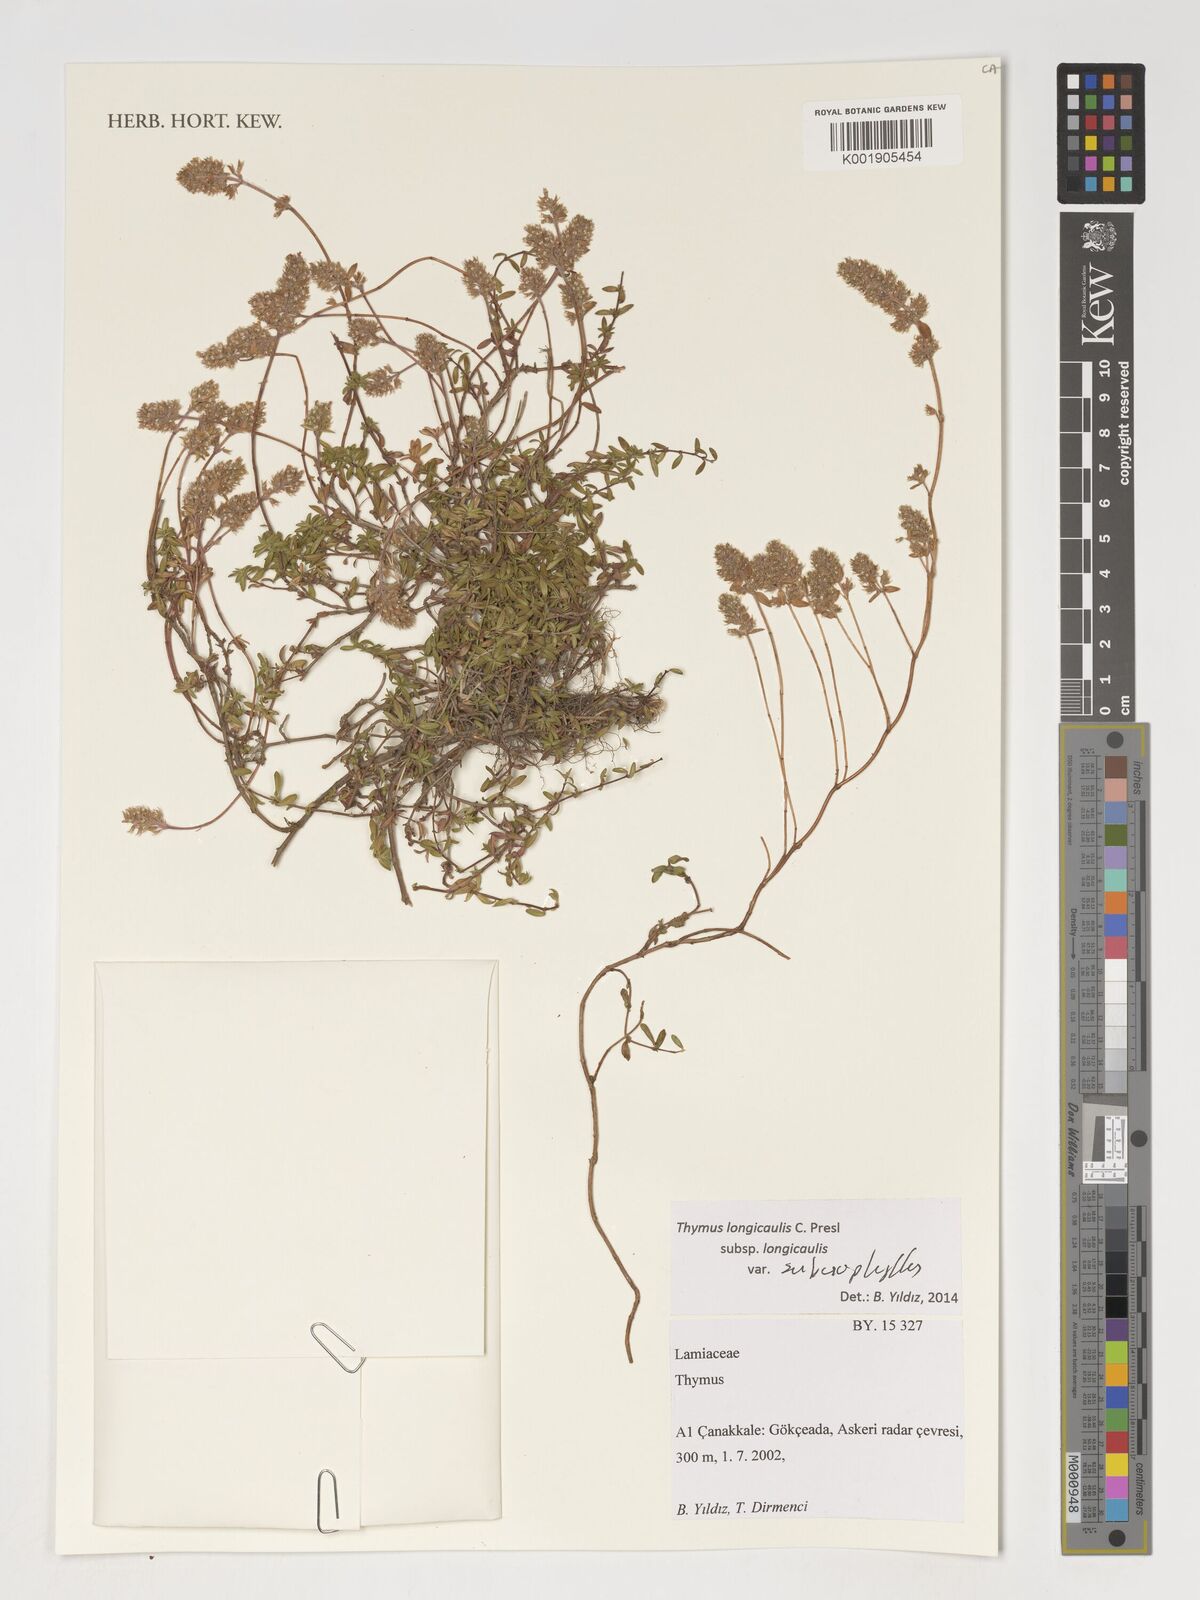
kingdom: Plantae
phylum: Tracheophyta
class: Magnoliopsida
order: Lamiales
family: Lamiaceae
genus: Thymus
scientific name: Thymus longicaulis
